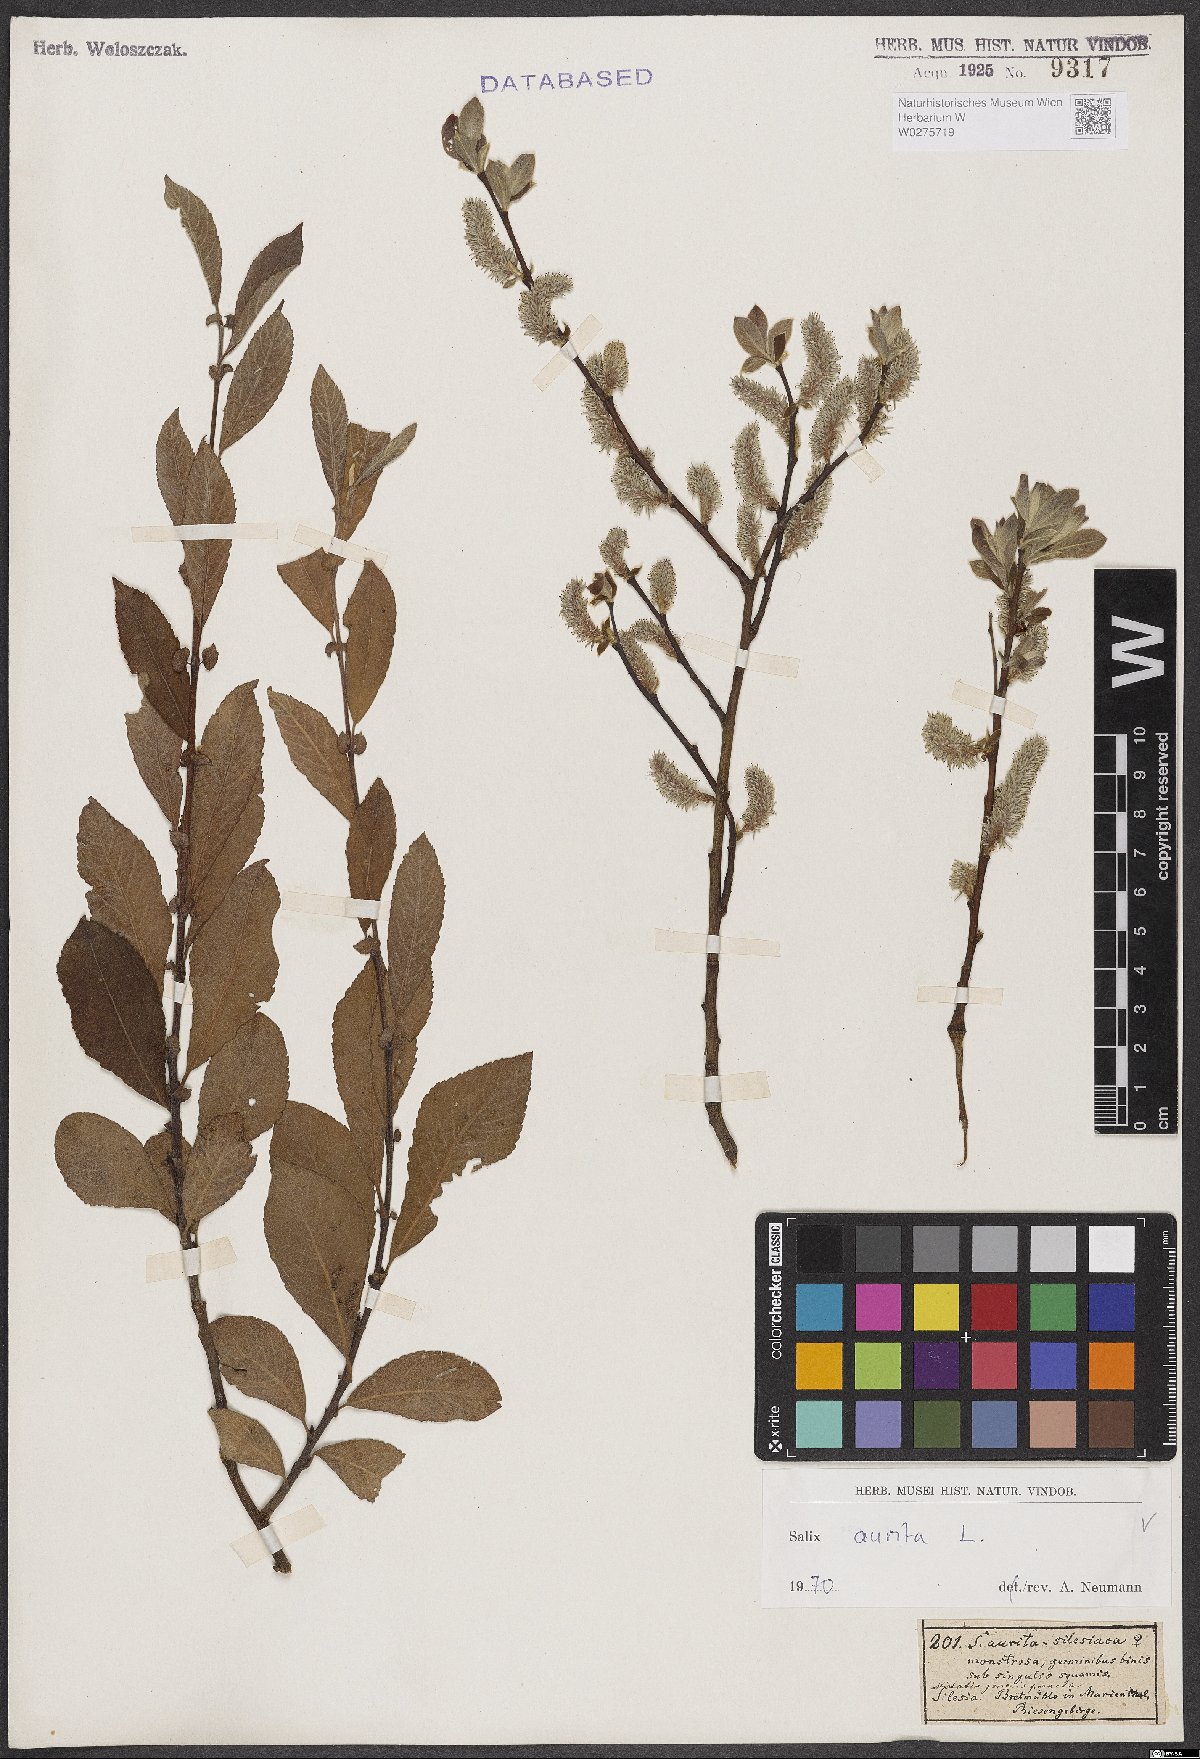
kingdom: Plantae
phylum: Tracheophyta
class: Magnoliopsida
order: Malpighiales
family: Salicaceae
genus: Salix
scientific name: Salix aurita
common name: Eared willow
